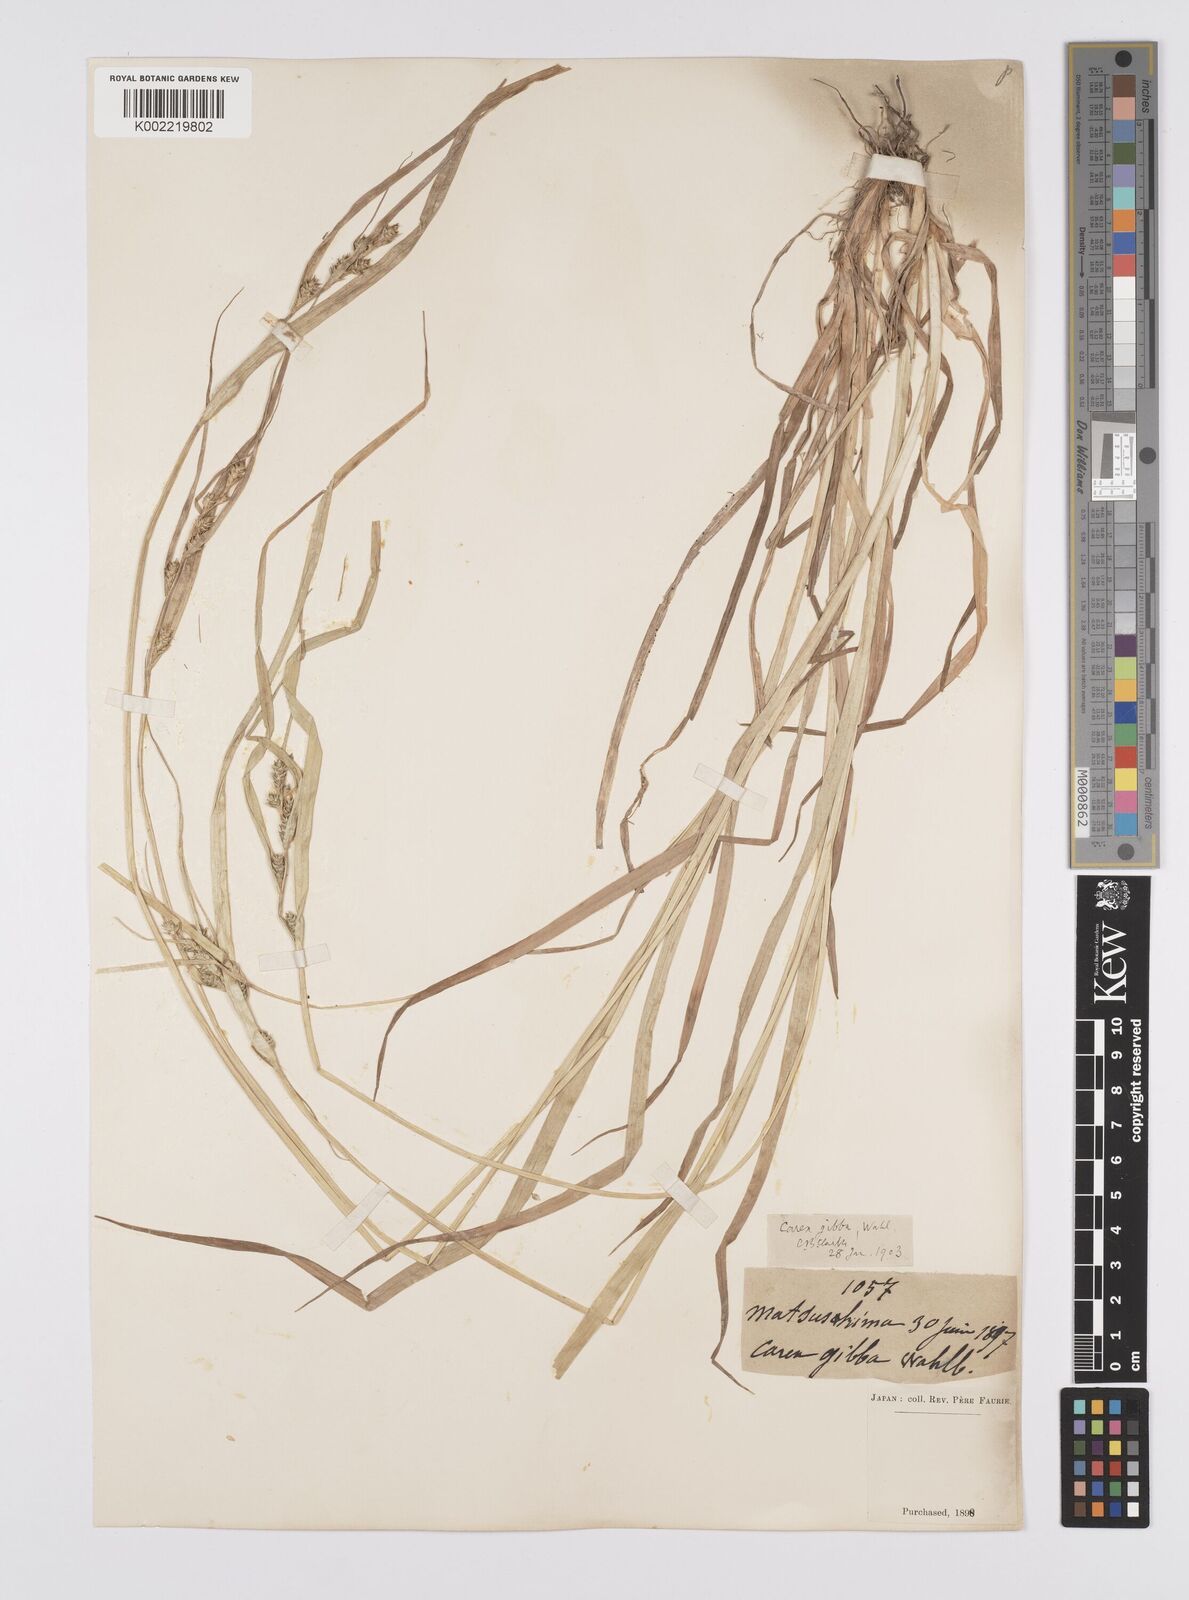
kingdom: Plantae
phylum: Tracheophyta
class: Liliopsida
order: Poales
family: Cyperaceae
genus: Carex
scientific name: Carex gibba
